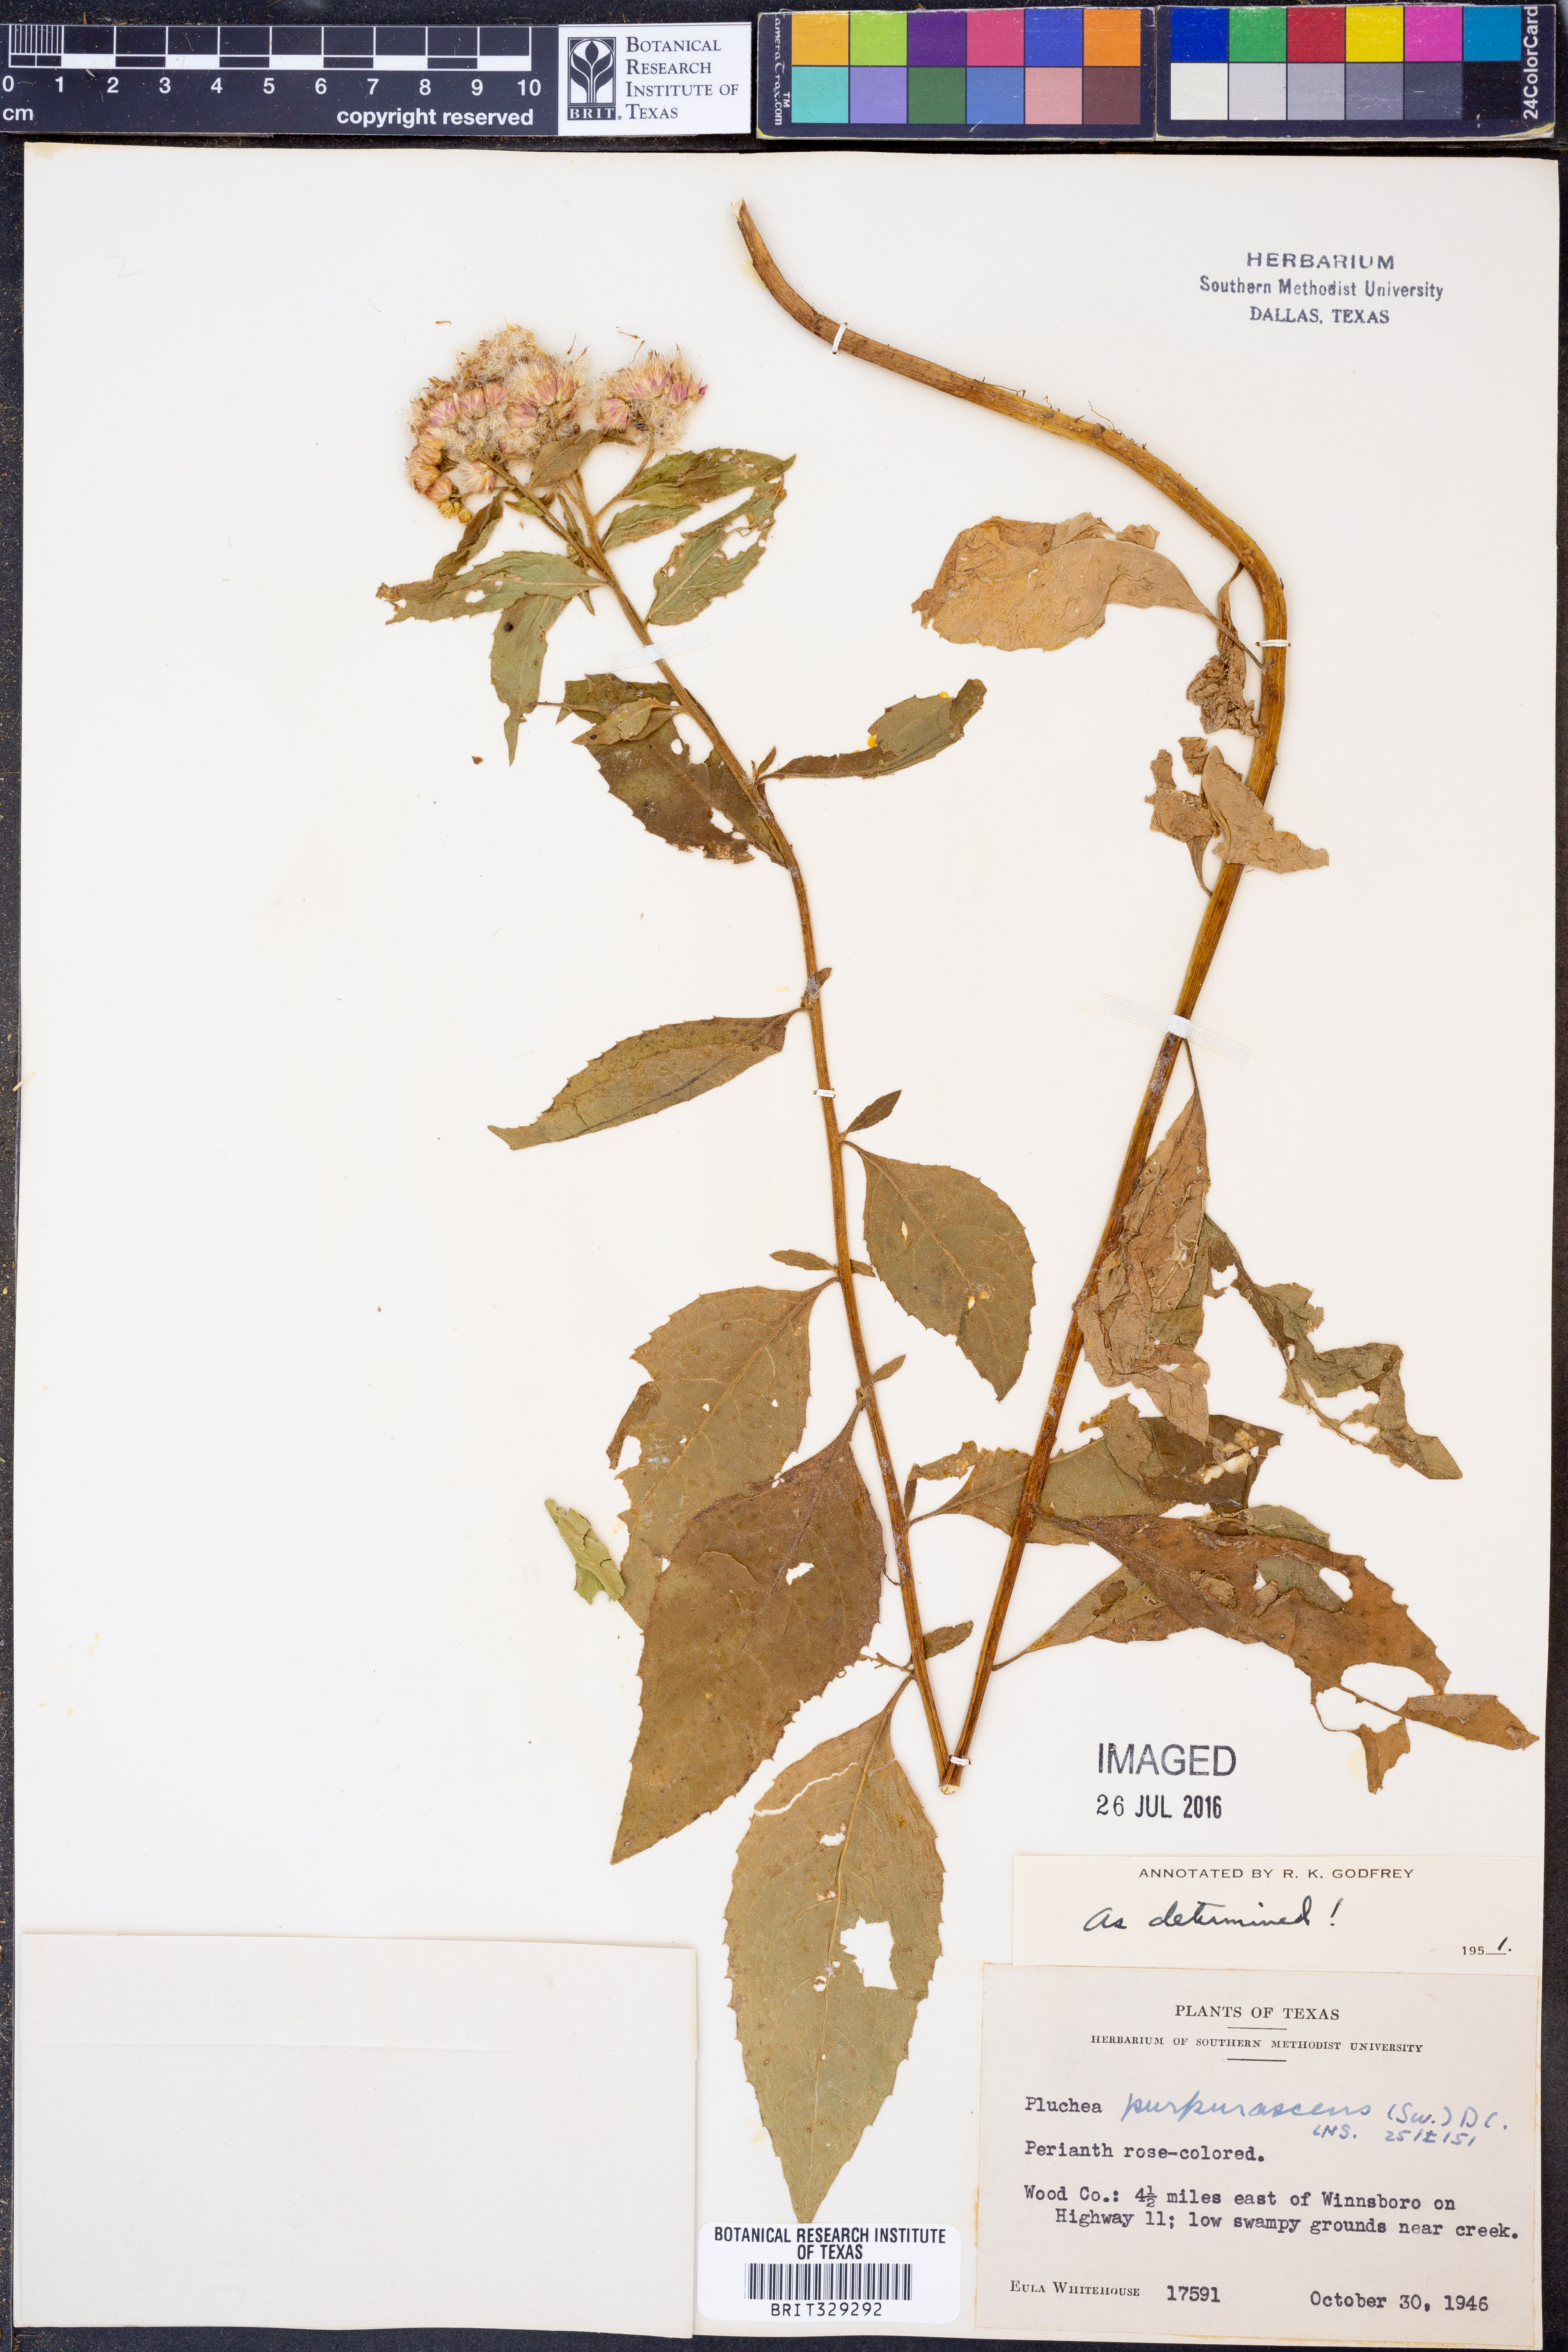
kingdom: Plantae
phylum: Tracheophyta
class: Magnoliopsida
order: Asterales
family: Asteraceae
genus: Pluchea
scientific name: Pluchea odorata
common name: Saltmarsh fleabane
